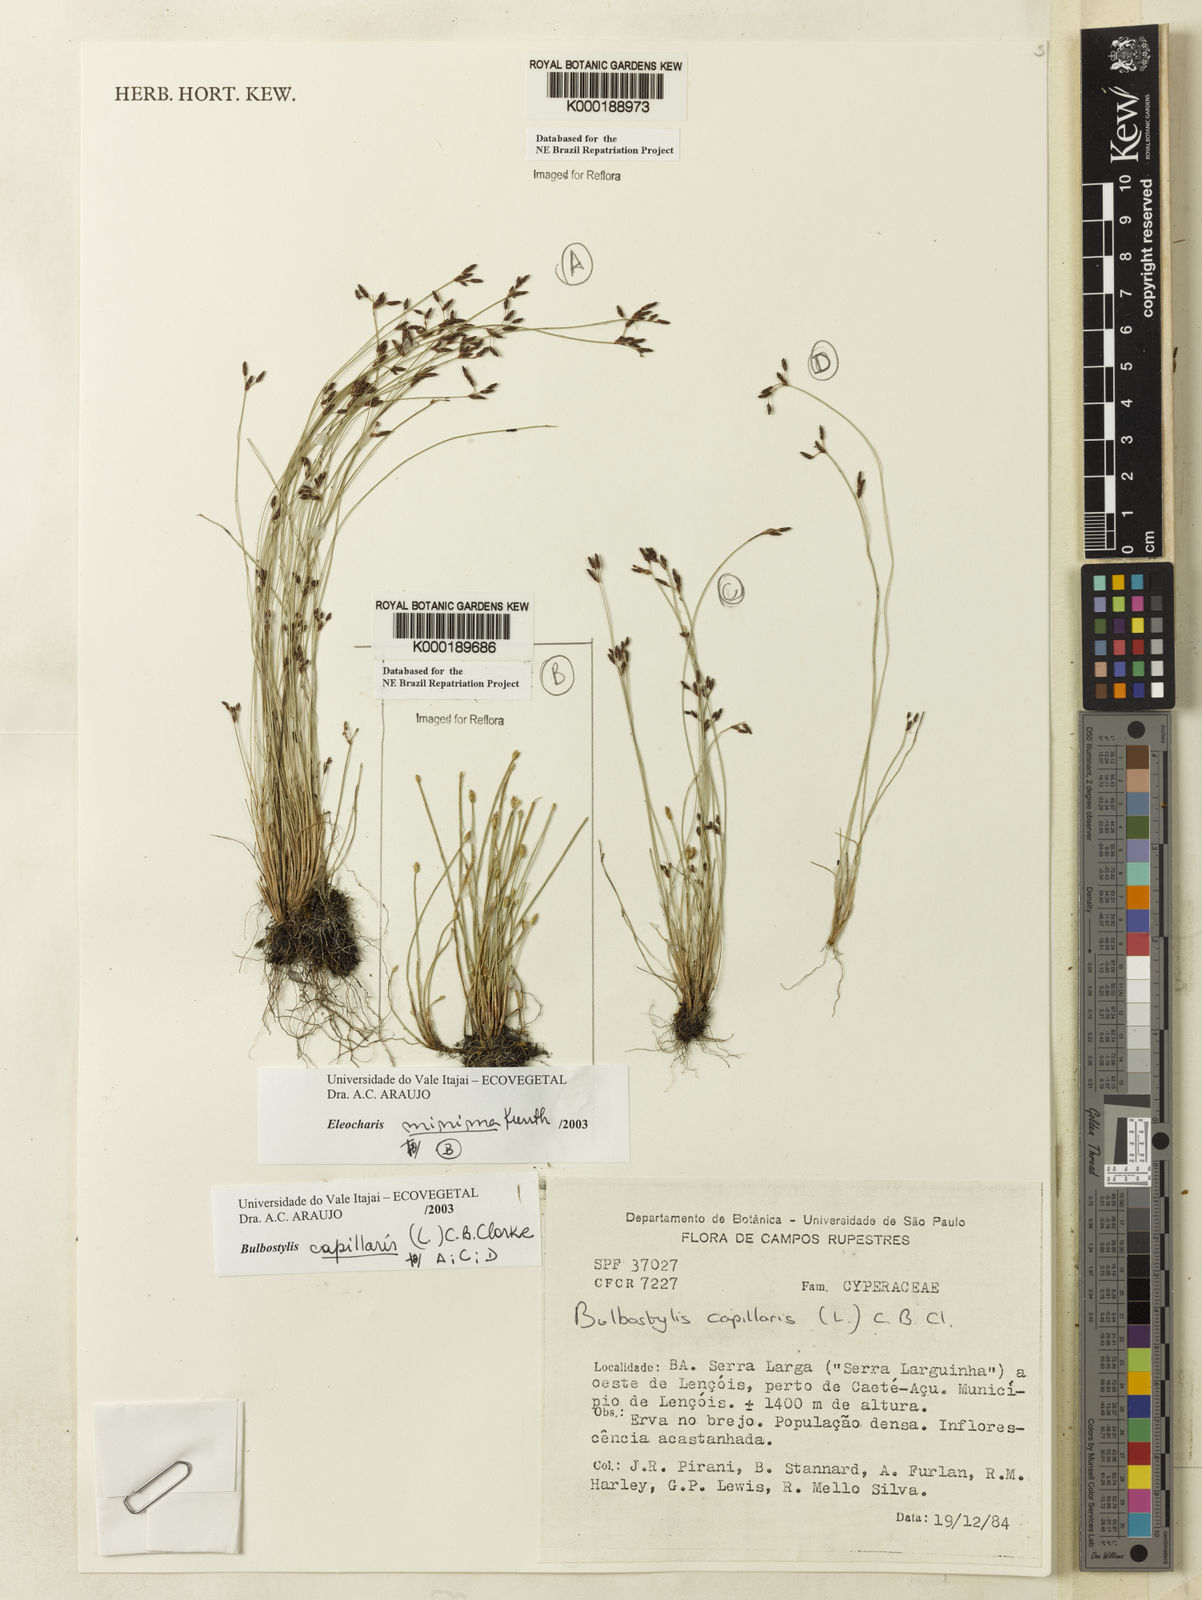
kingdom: Plantae
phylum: Tracheophyta
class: Liliopsida
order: Poales
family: Cyperaceae
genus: Bulbostylis
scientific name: Bulbostylis capillaris
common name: Densetuft hairsedge
